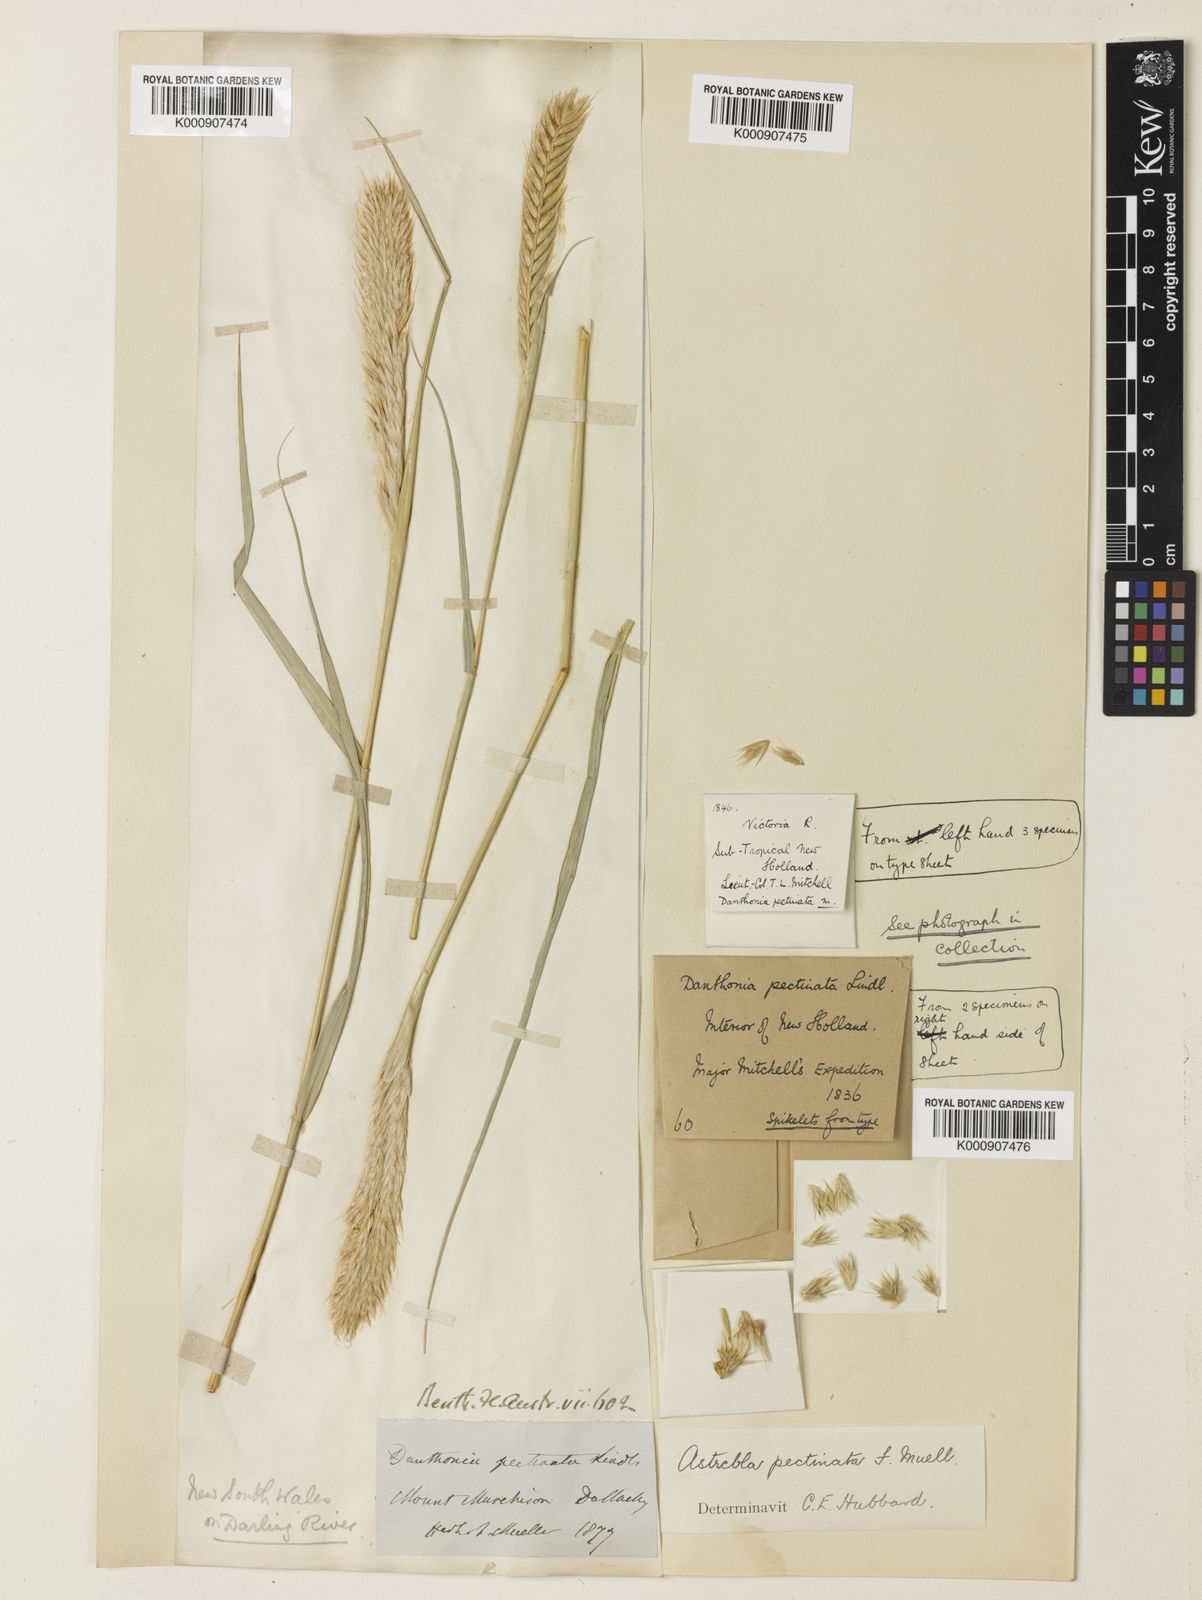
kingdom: Plantae
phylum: Tracheophyta
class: Liliopsida
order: Poales
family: Poaceae
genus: Astrebla
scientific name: Astrebla pectinata
